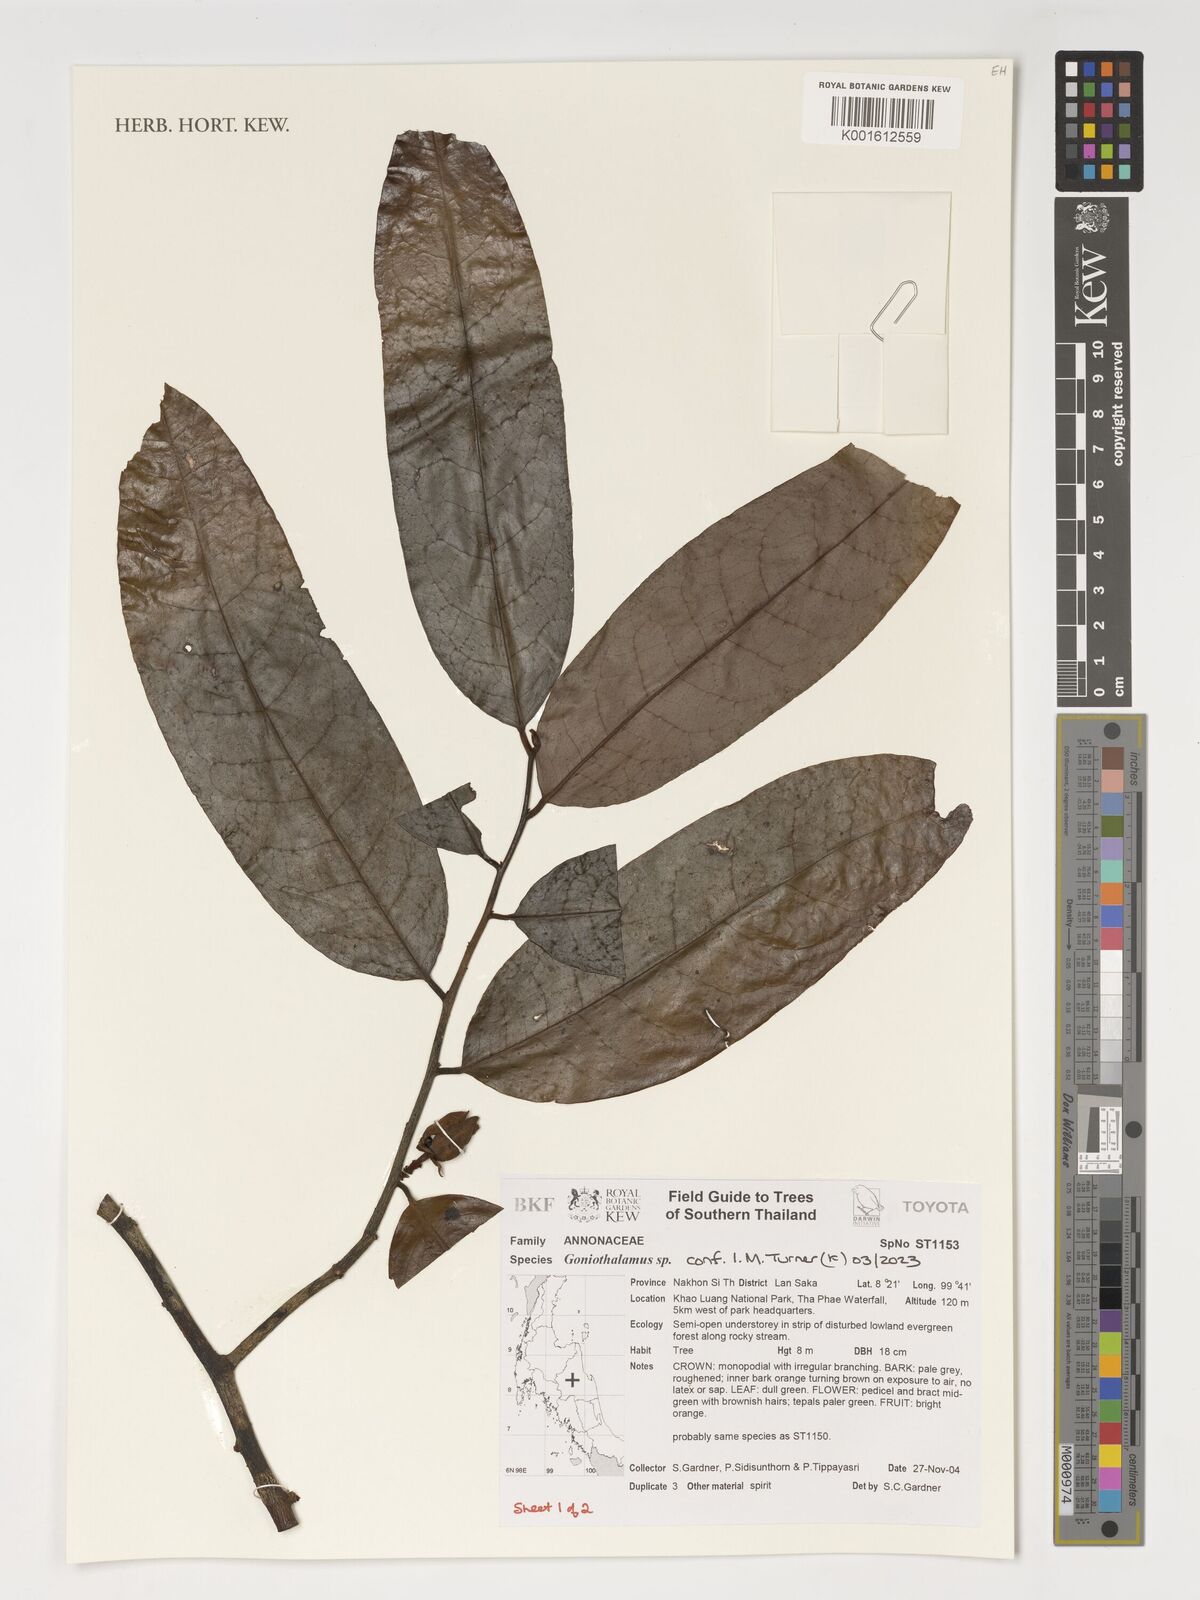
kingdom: Plantae
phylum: Tracheophyta
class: Magnoliopsida
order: Magnoliales
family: Annonaceae
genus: Goniothalamus
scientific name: Goniothalamus
